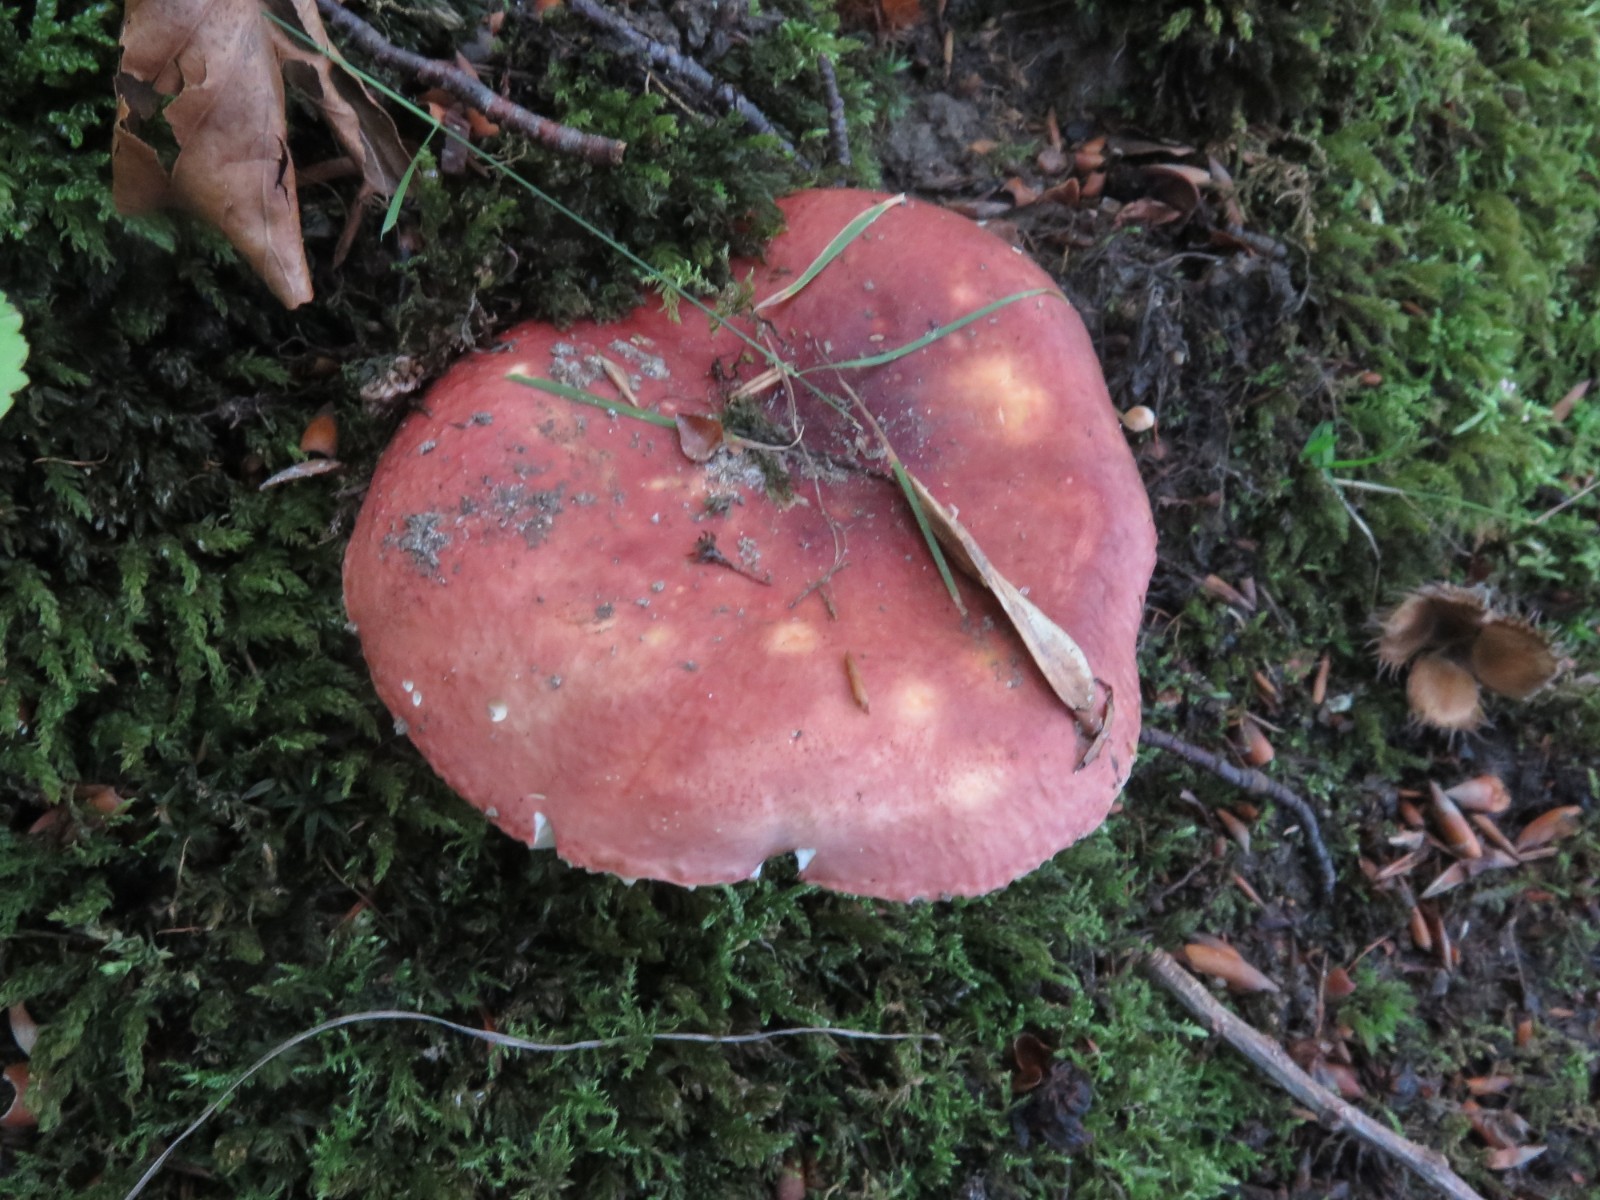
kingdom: Fungi
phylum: Basidiomycota
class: Agaricomycetes
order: Russulales
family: Russulaceae
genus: Russula
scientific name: Russula faginea
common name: bøge-skørhat
